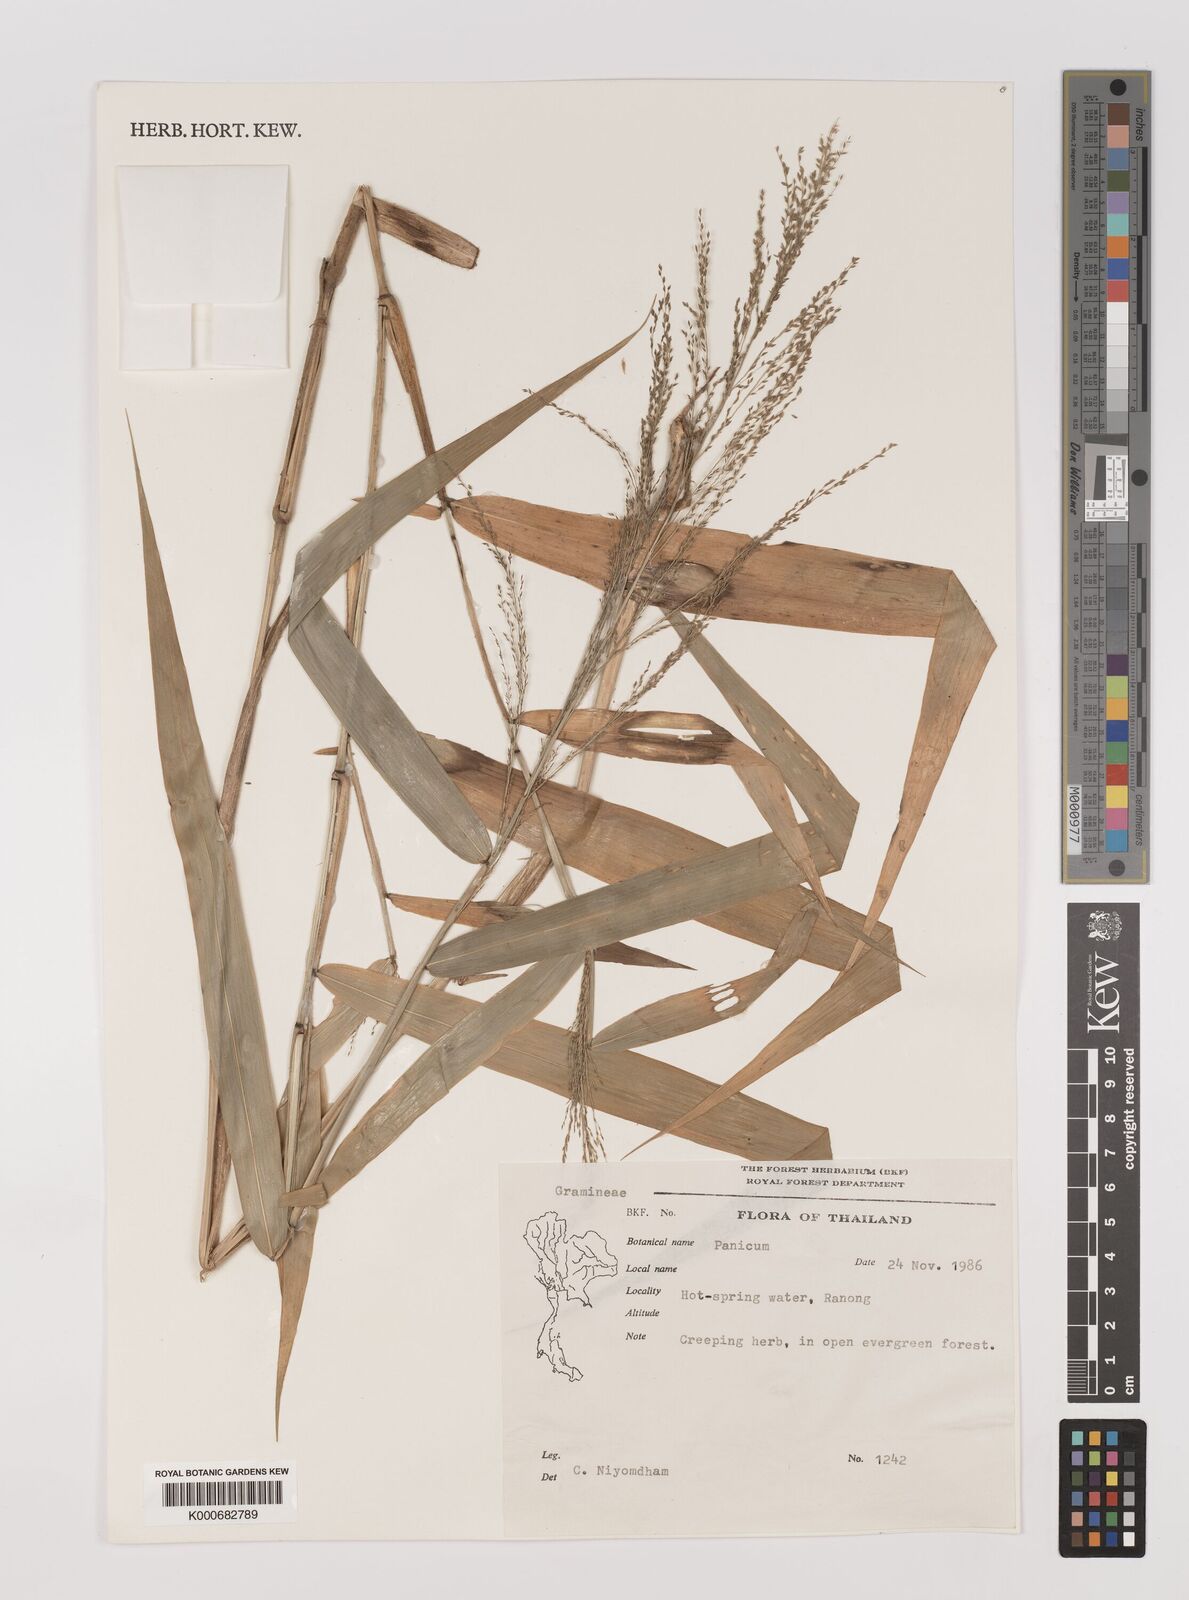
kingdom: Plantae
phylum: Tracheophyta
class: Liliopsida
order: Poales
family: Poaceae
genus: Panicum
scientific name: Panicum sarmentosum
